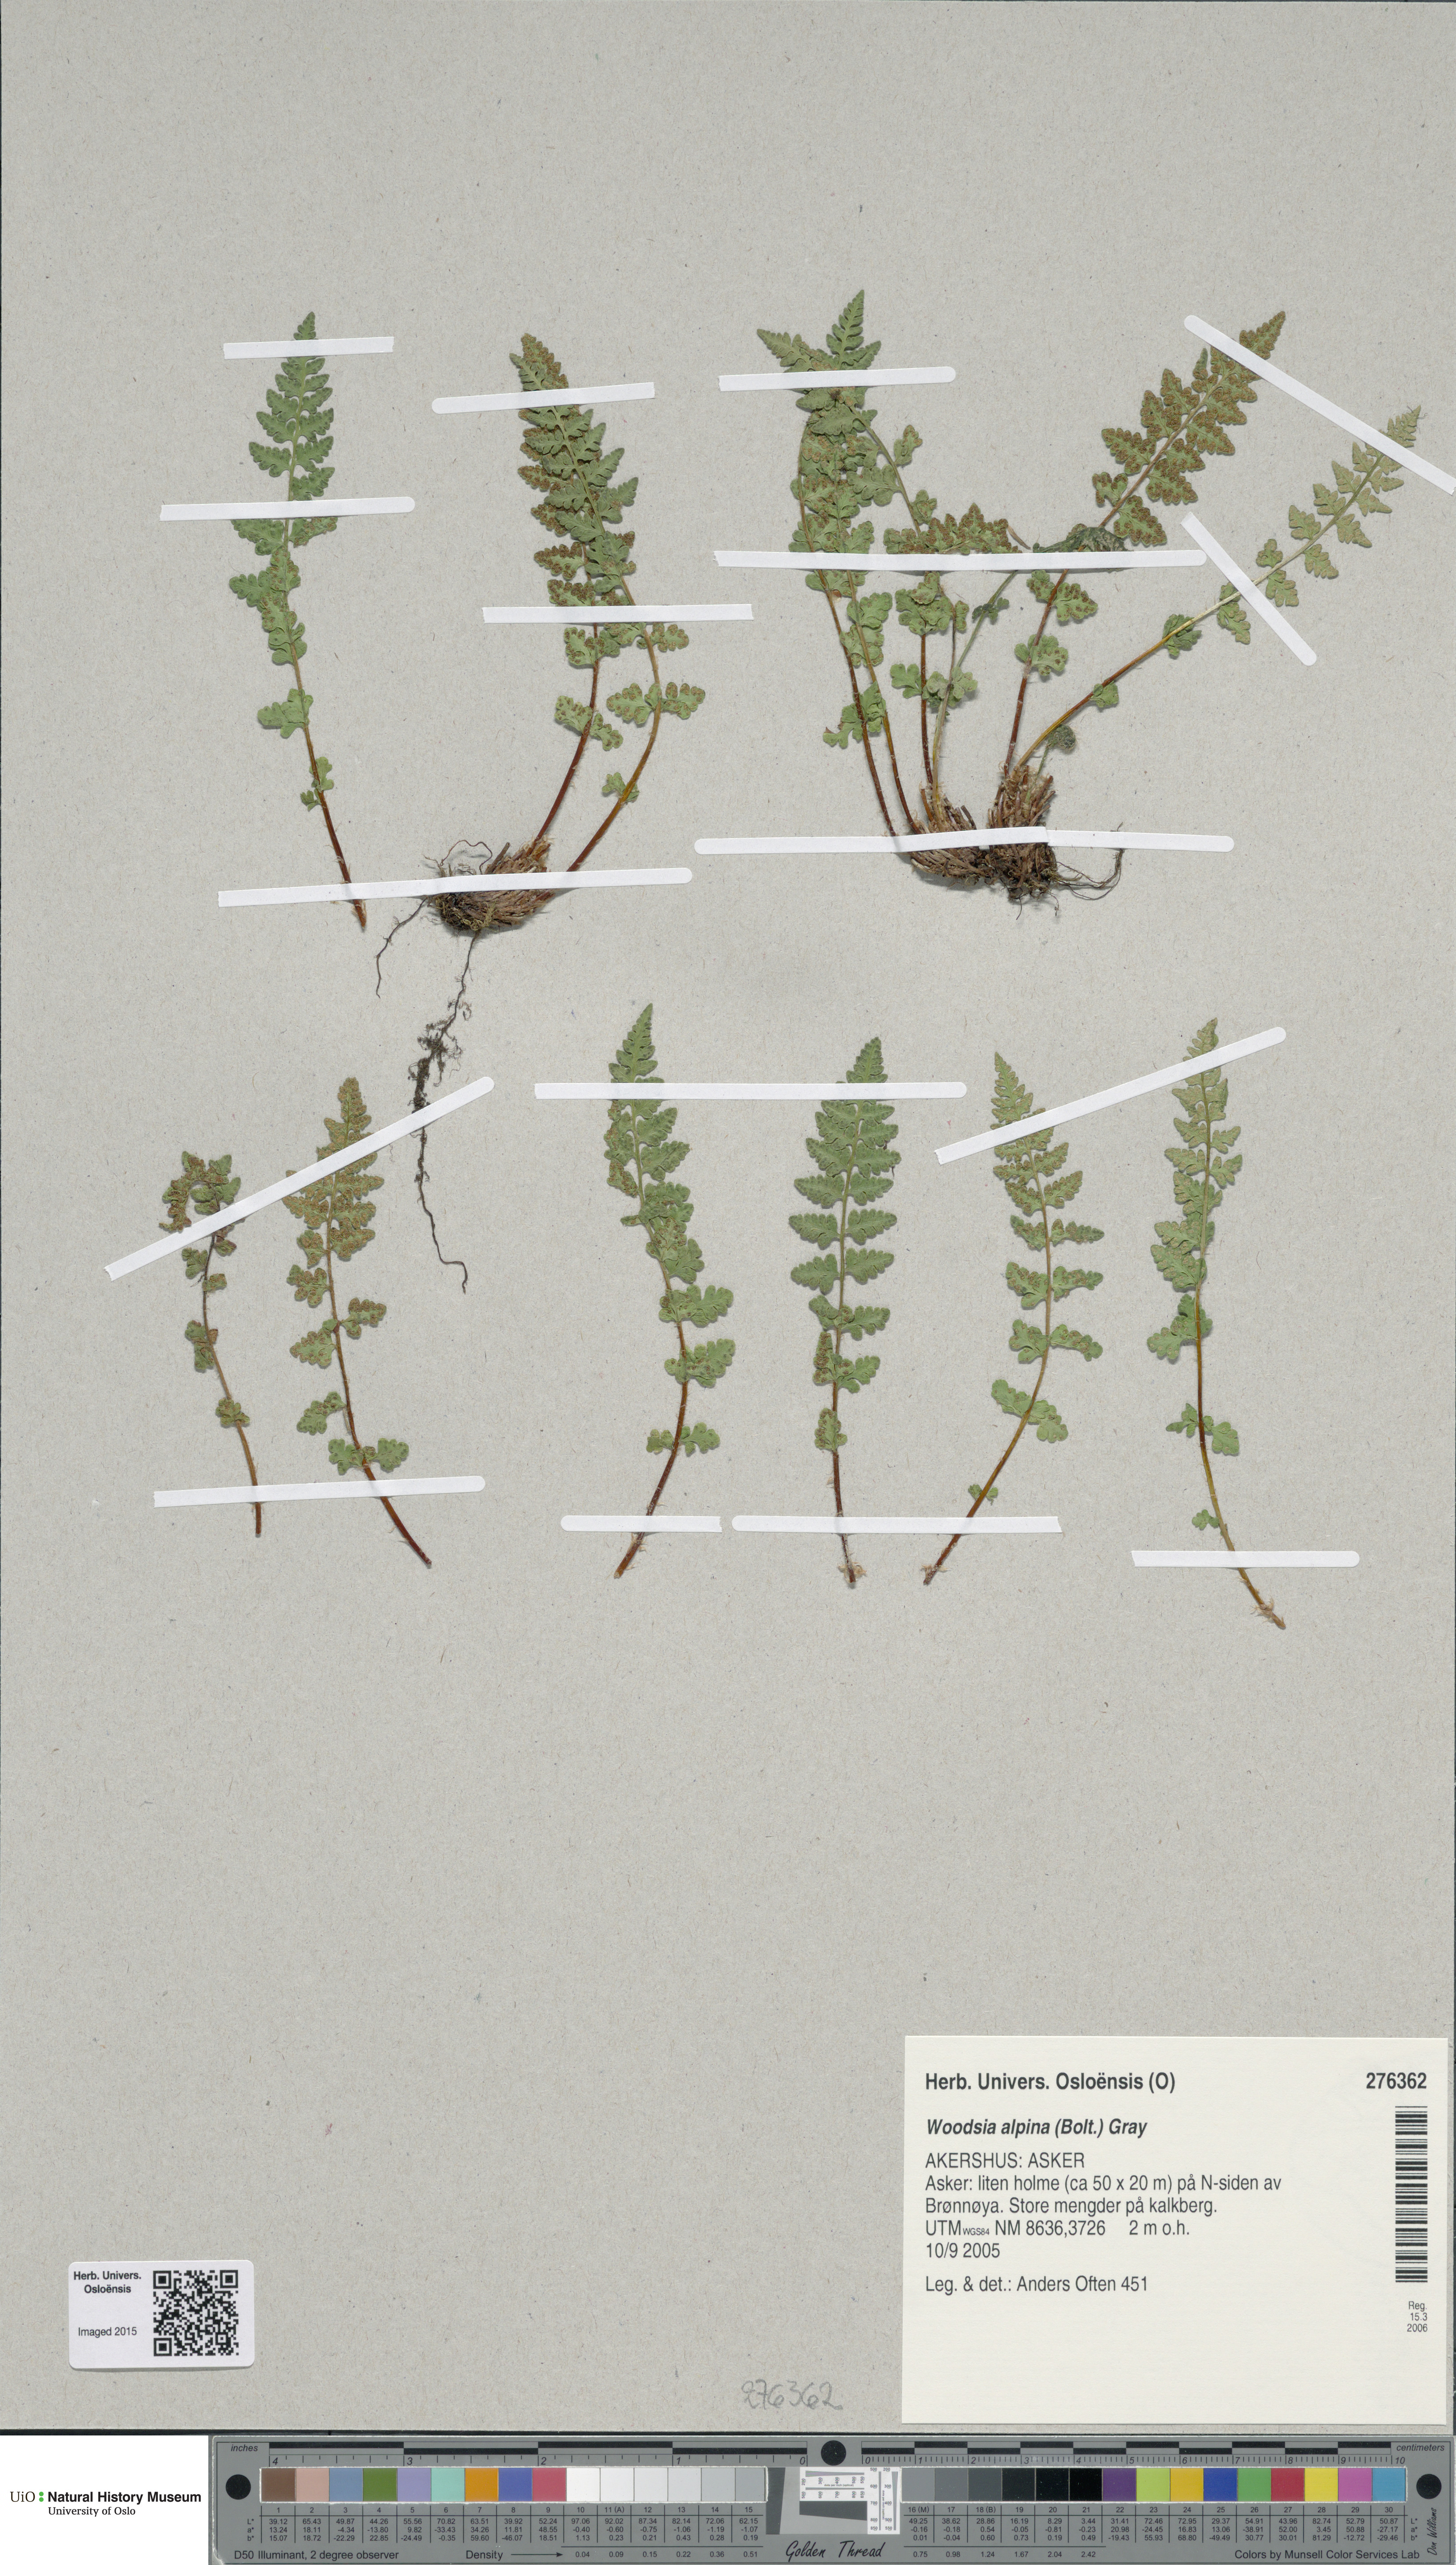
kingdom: Plantae
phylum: Tracheophyta
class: Polypodiopsida
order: Polypodiales
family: Woodsiaceae
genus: Woodsia
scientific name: Woodsia alpina
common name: Alpine woodsia
